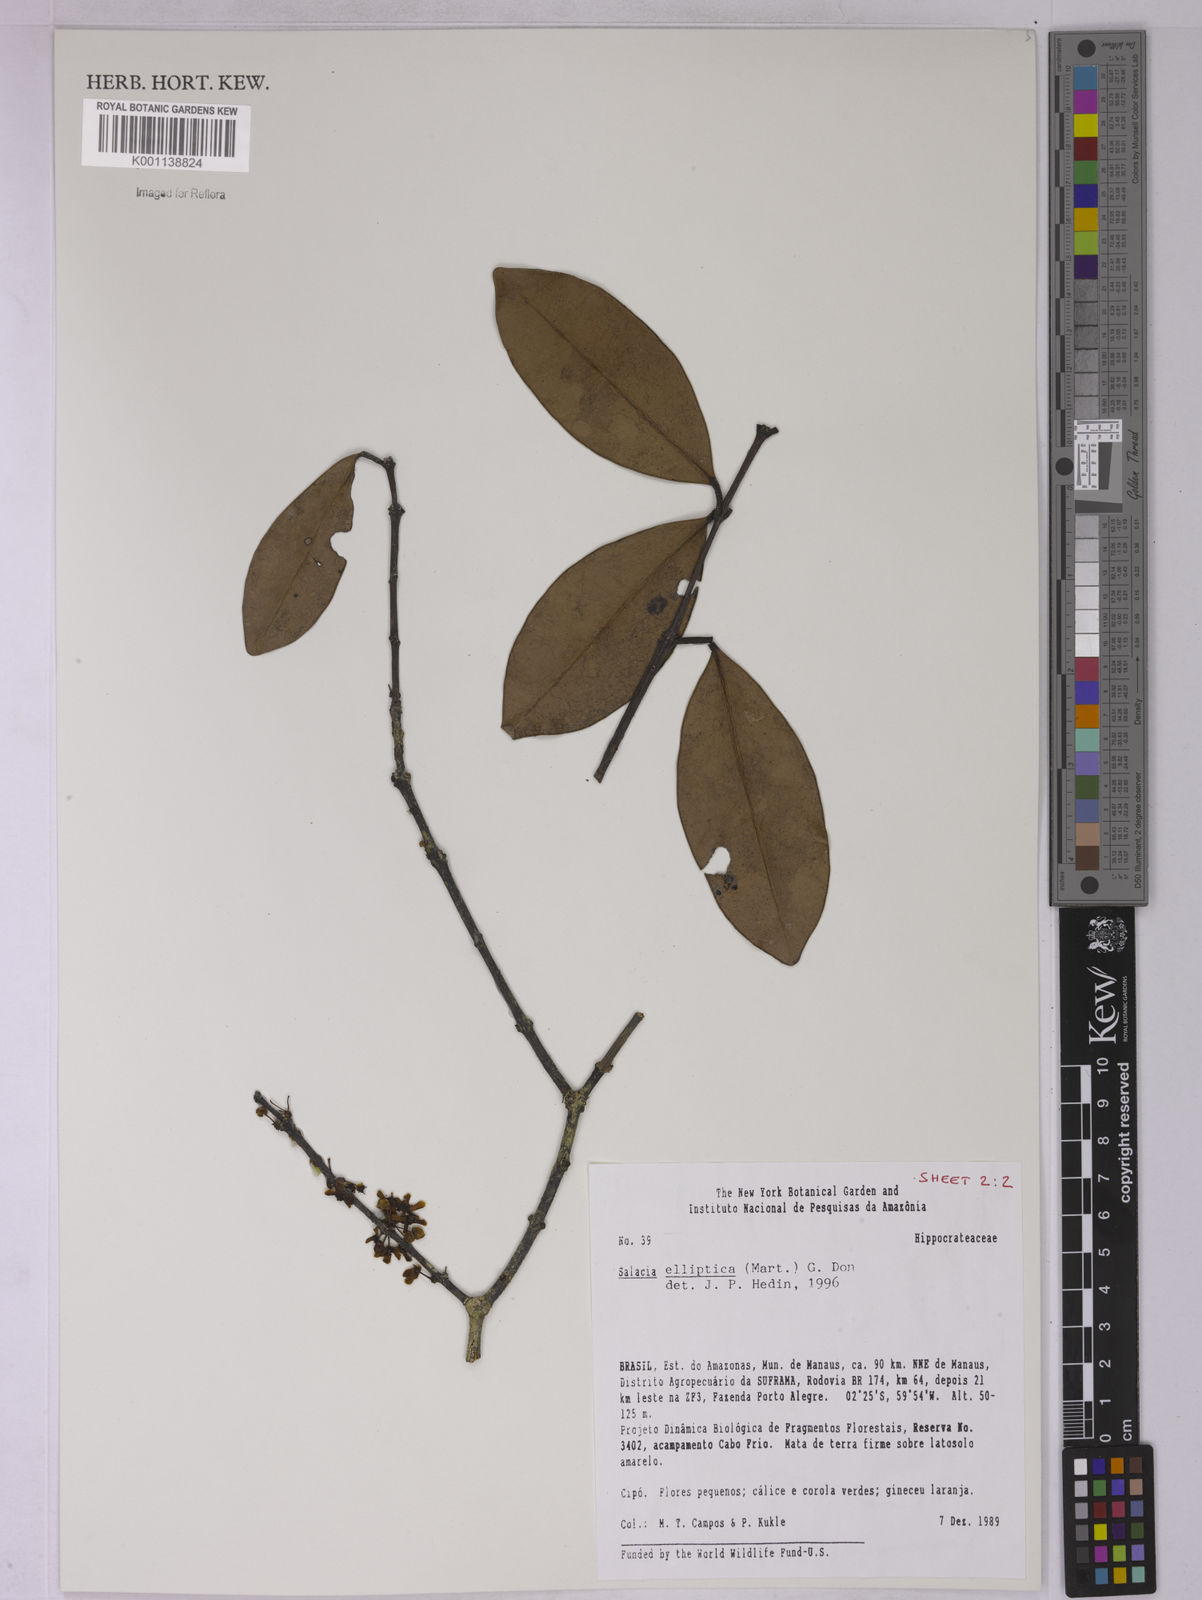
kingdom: Plantae
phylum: Tracheophyta
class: Magnoliopsida
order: Celastrales
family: Celastraceae
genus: Salacia
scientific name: Salacia elliptica
